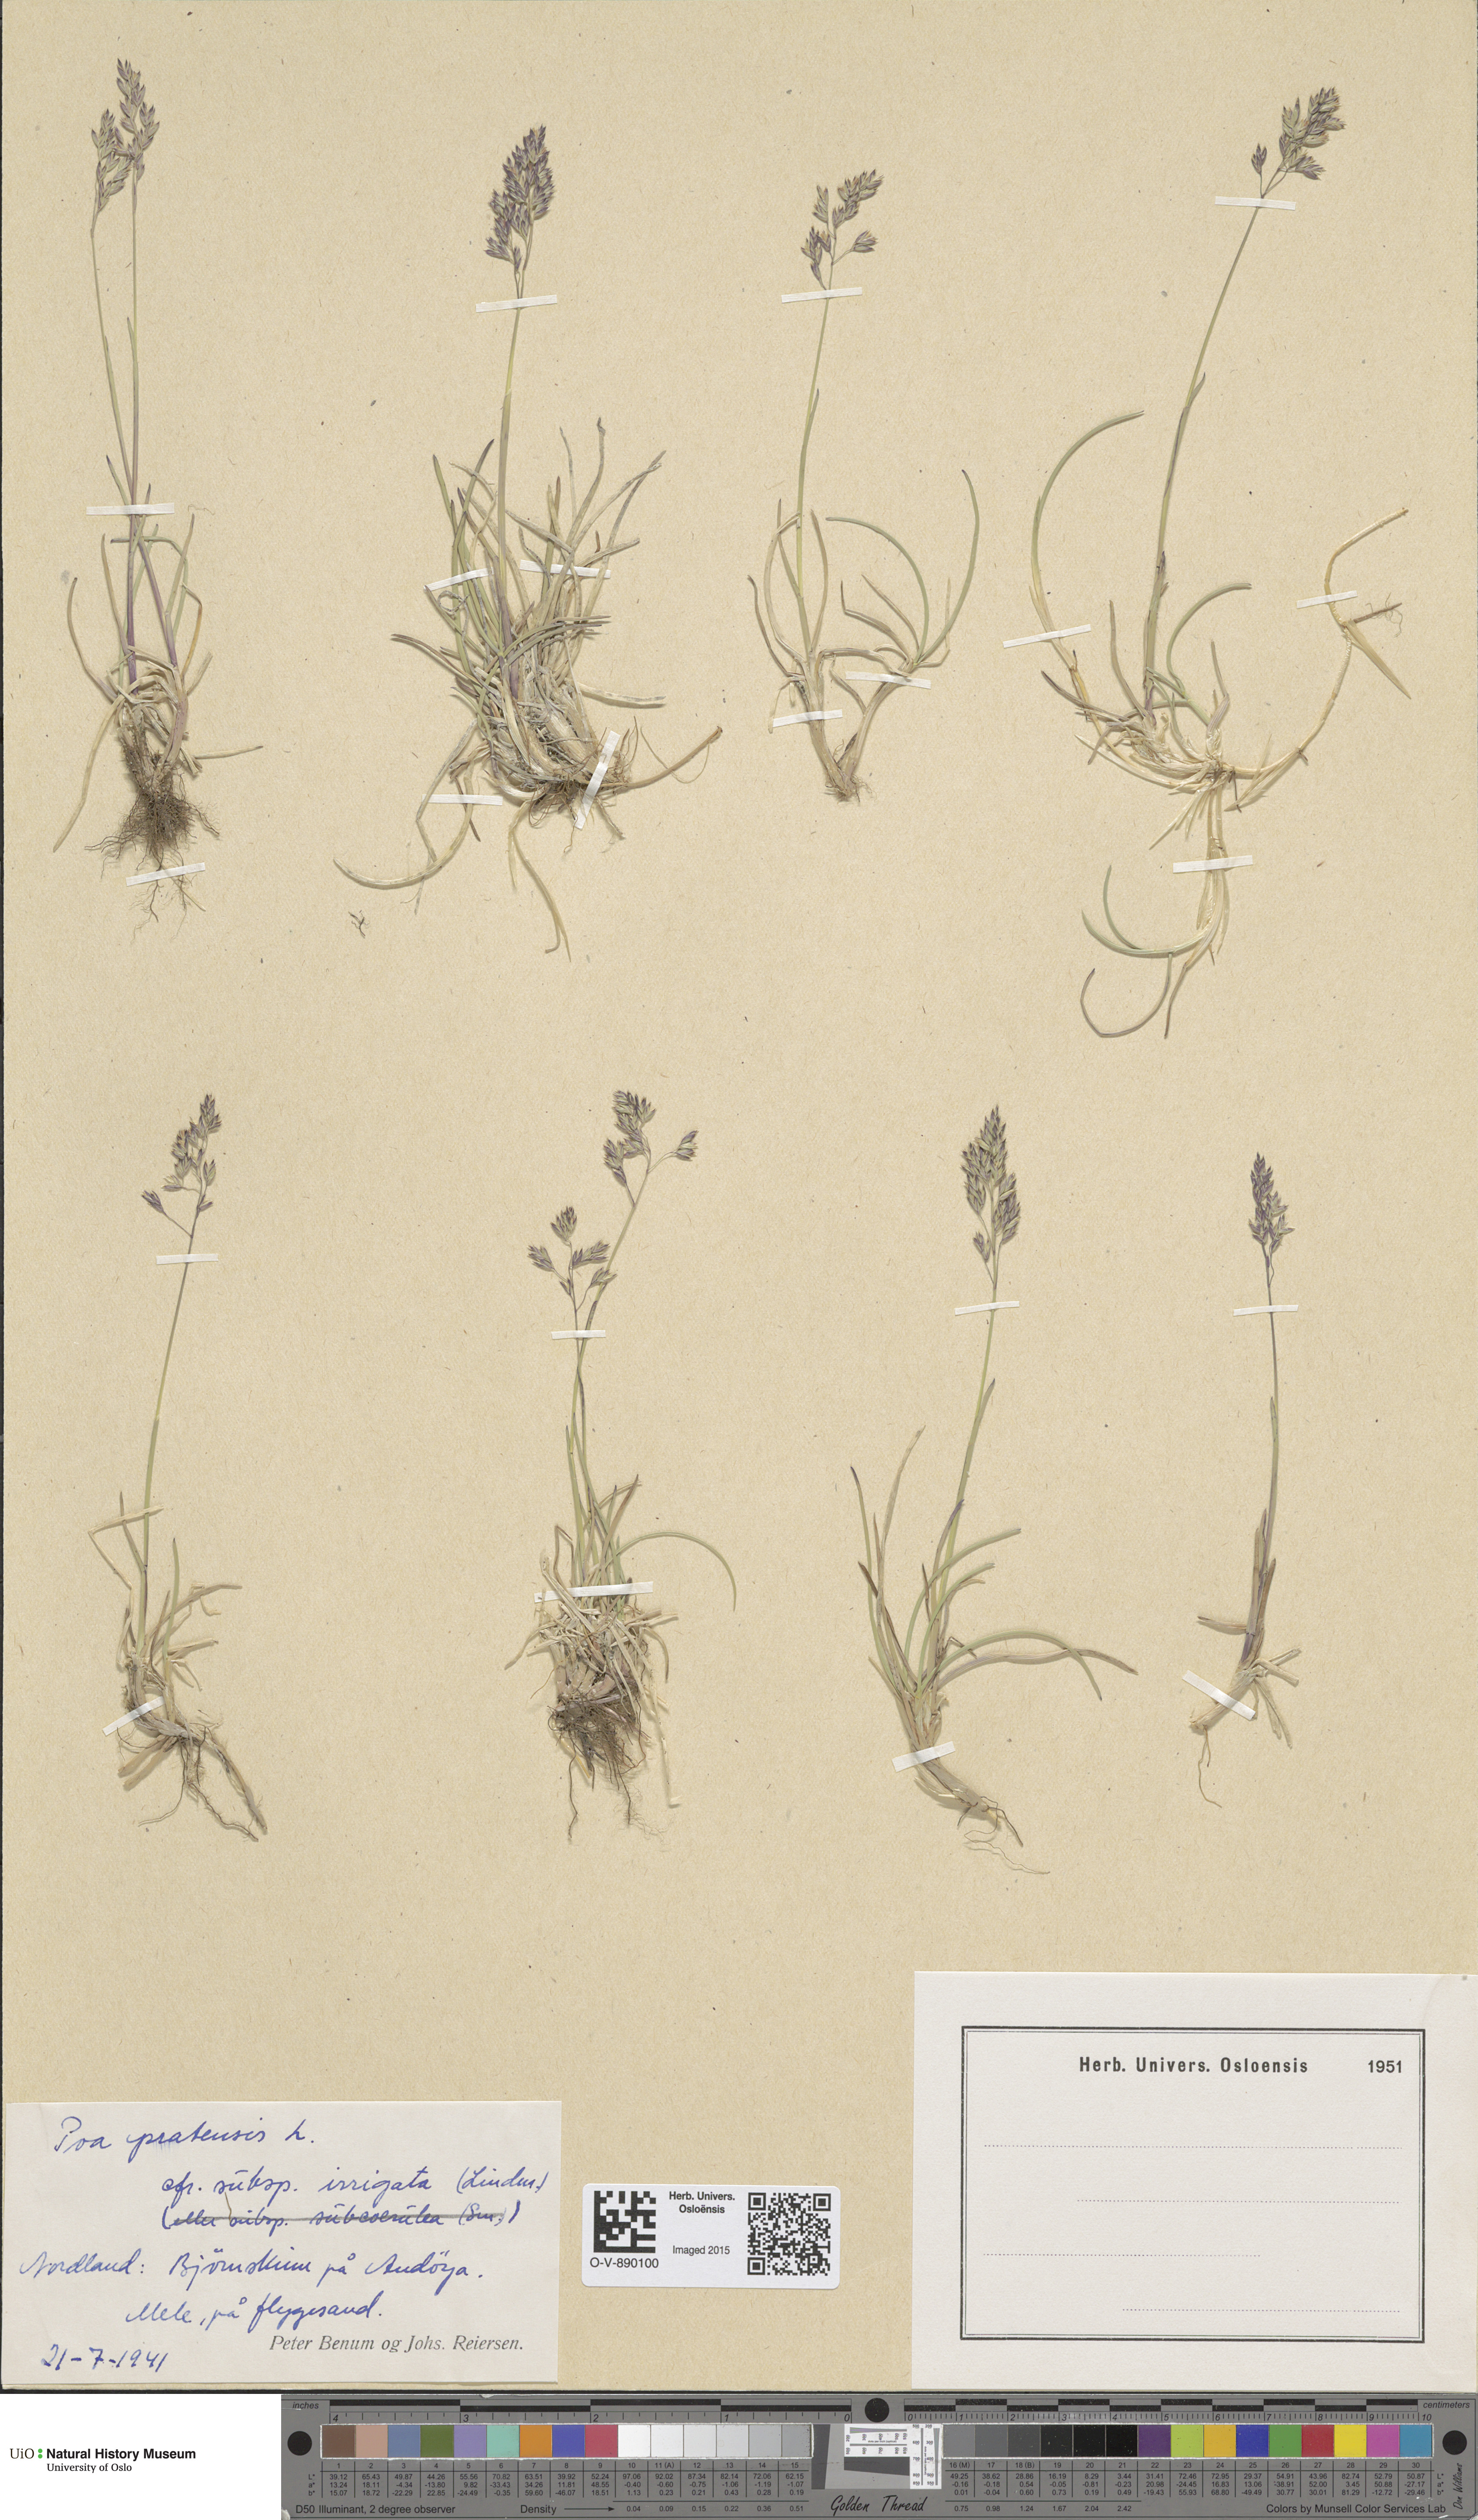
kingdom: Plantae
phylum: Tracheophyta
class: Liliopsida
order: Poales
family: Poaceae
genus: Poa
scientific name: Poa humilis
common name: Spreading meadow-grass
